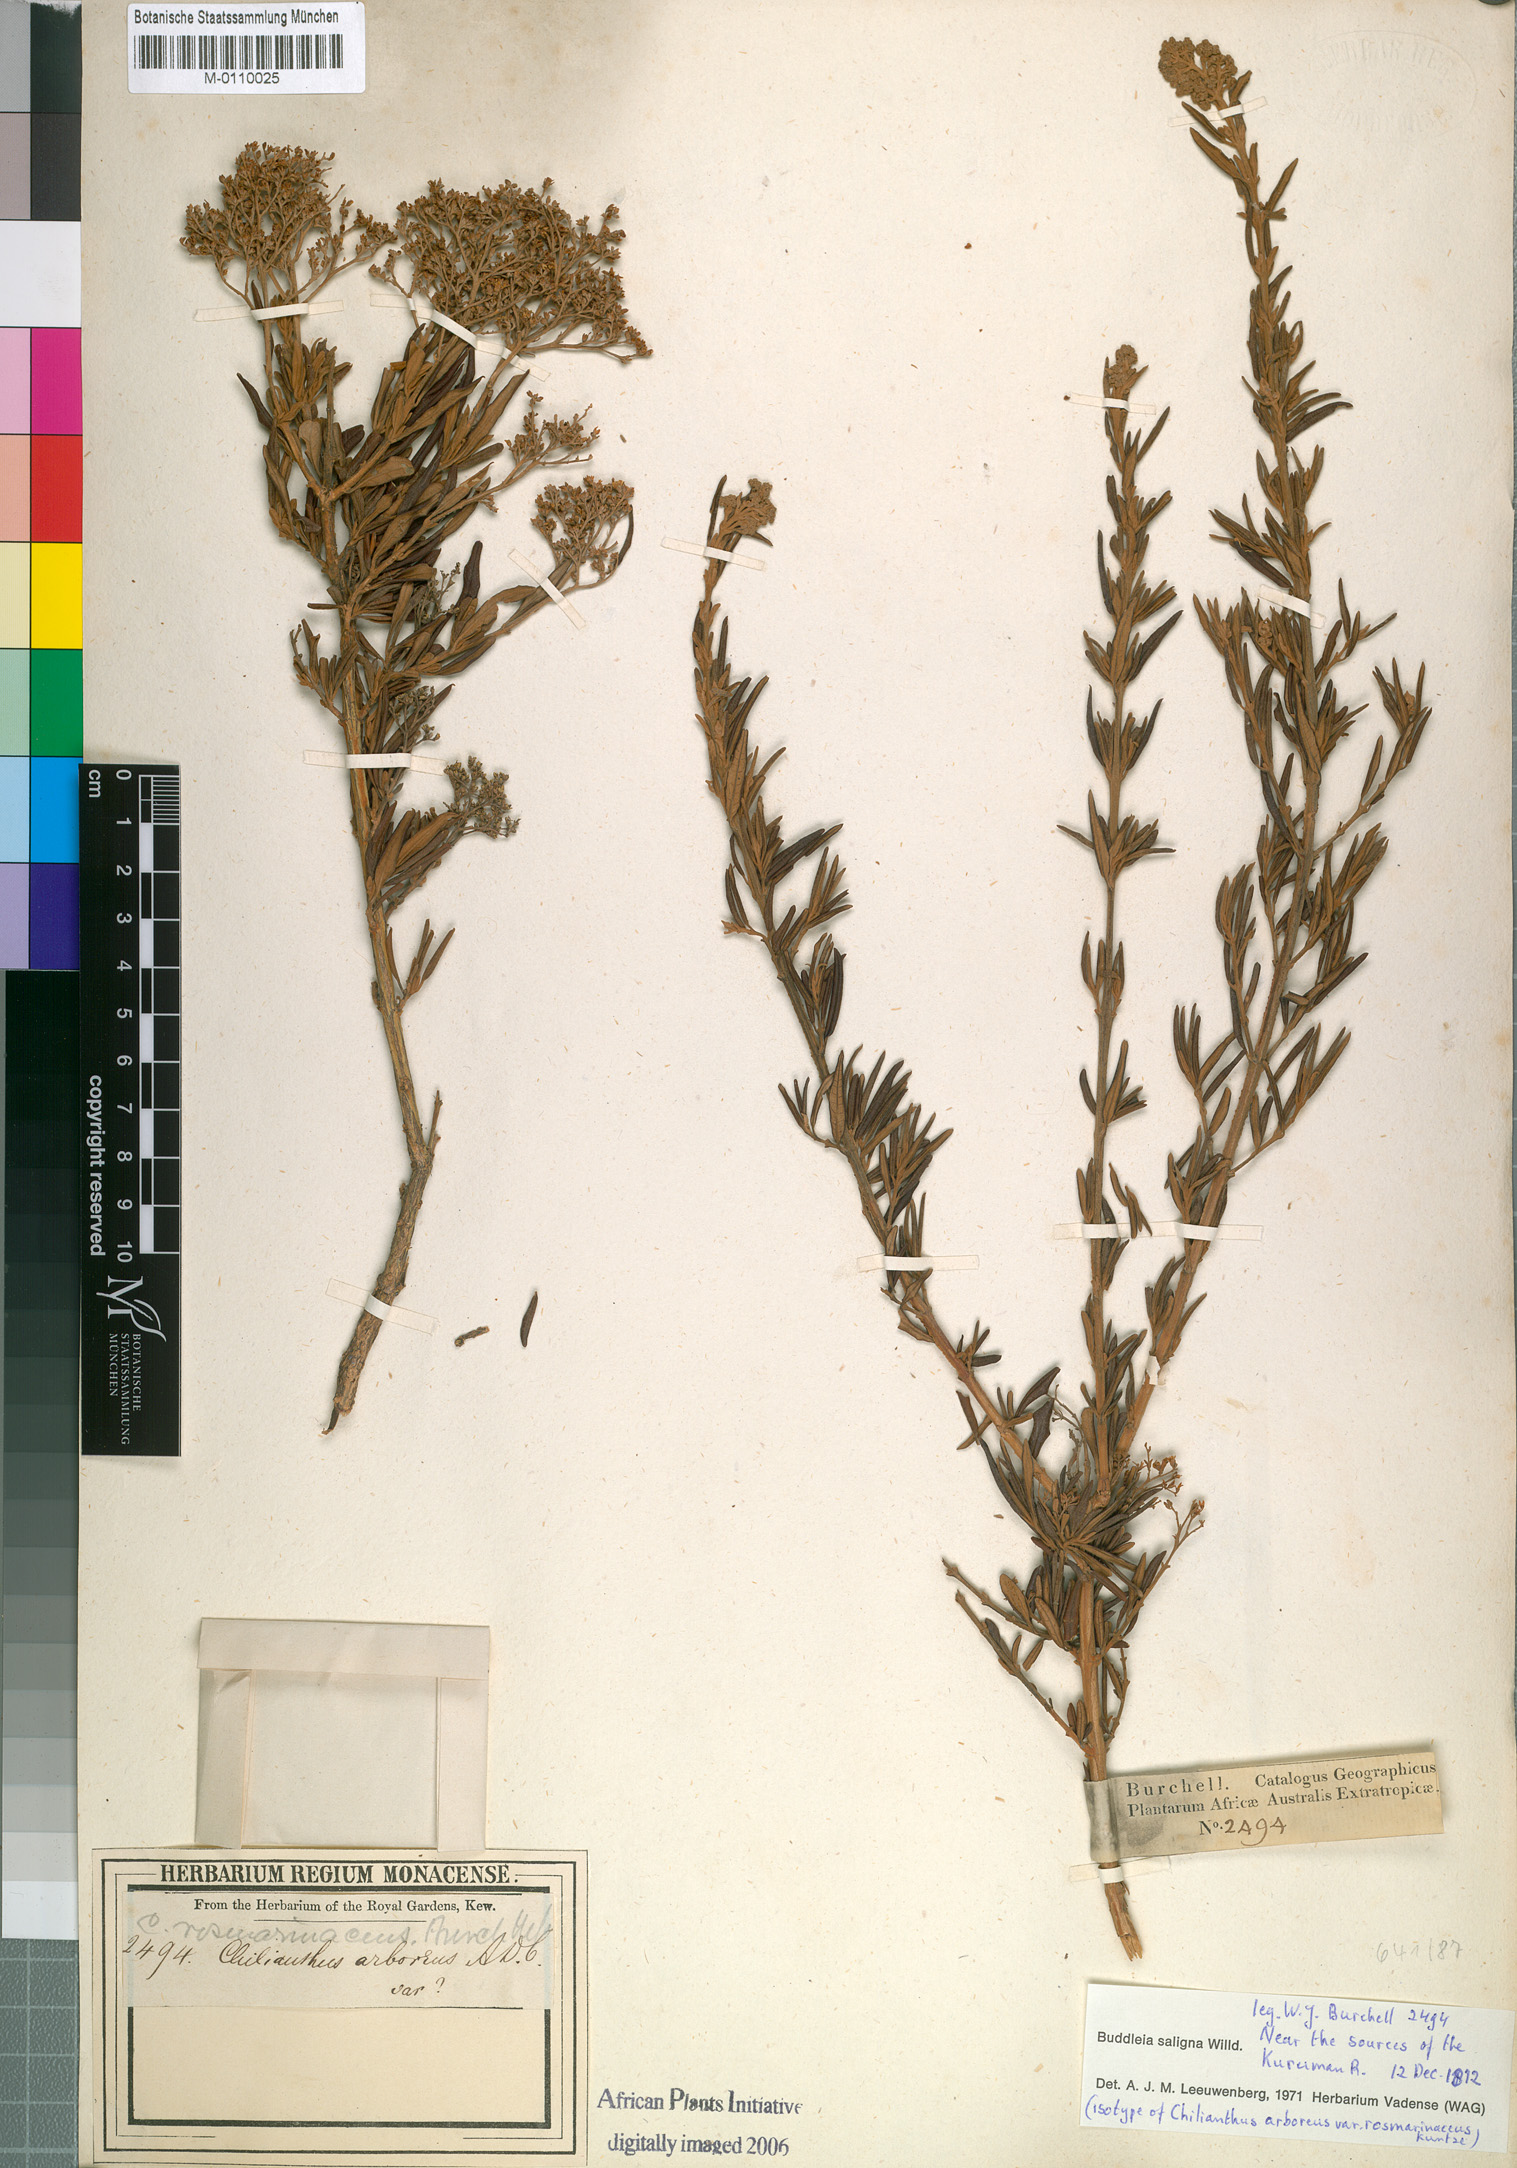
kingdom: Plantae
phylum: Tracheophyta
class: Magnoliopsida
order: Lamiales
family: Scrophulariaceae
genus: Buddleja
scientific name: Buddleja saligna
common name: False olive
